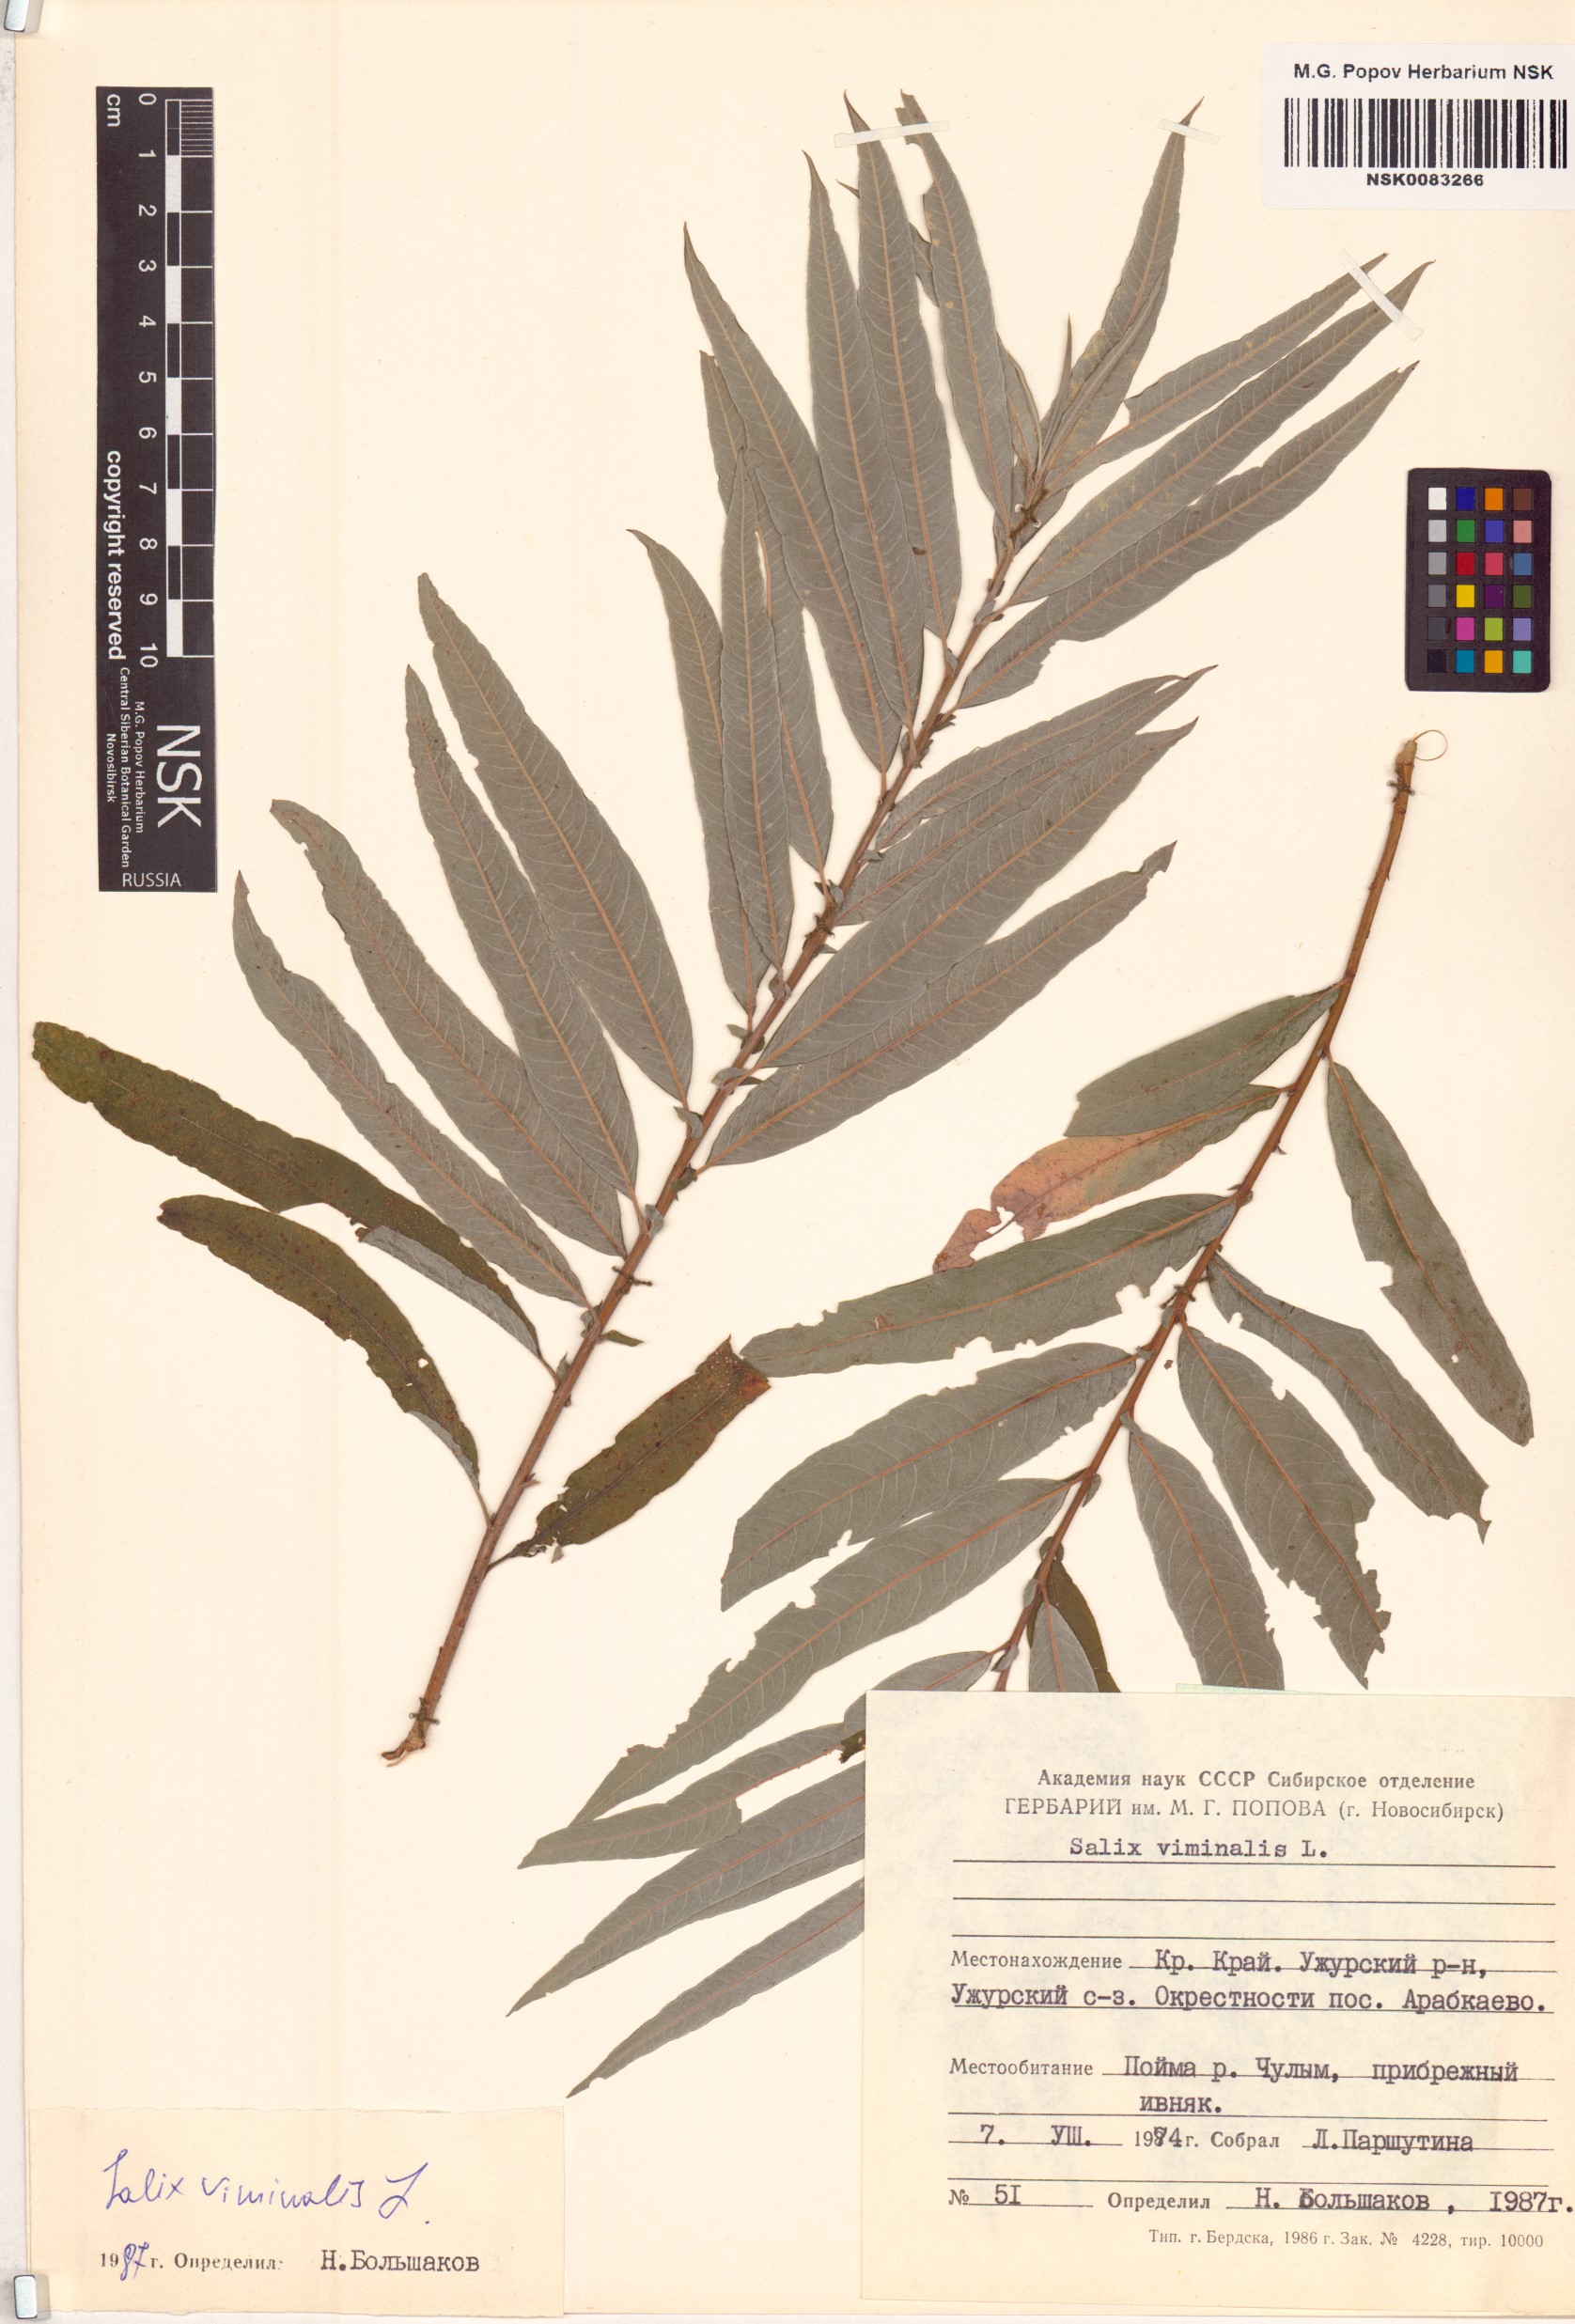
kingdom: Plantae
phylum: Tracheophyta
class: Magnoliopsida
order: Malpighiales
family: Salicaceae
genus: Salix
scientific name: Salix viminalis
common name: Osier
